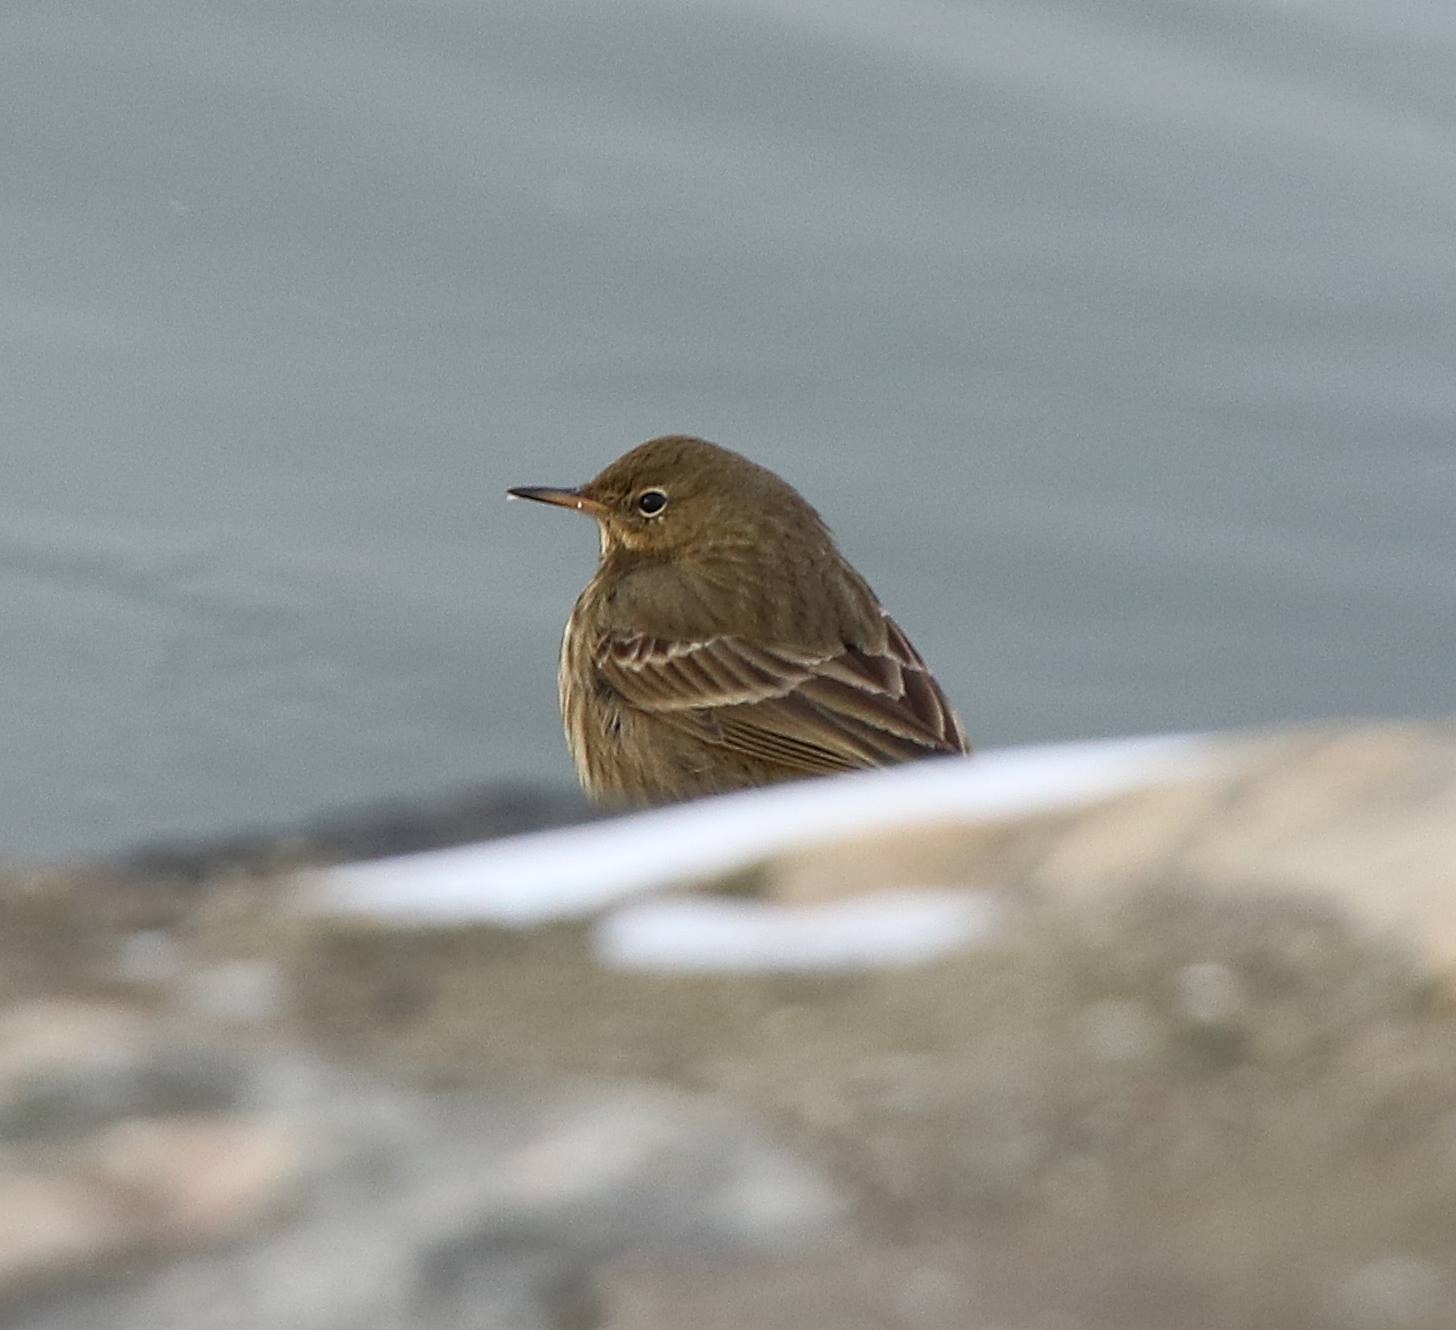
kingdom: Animalia
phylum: Chordata
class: Aves
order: Passeriformes
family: Motacillidae
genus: Anthus
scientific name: Anthus petrosus
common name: Skærpiber
